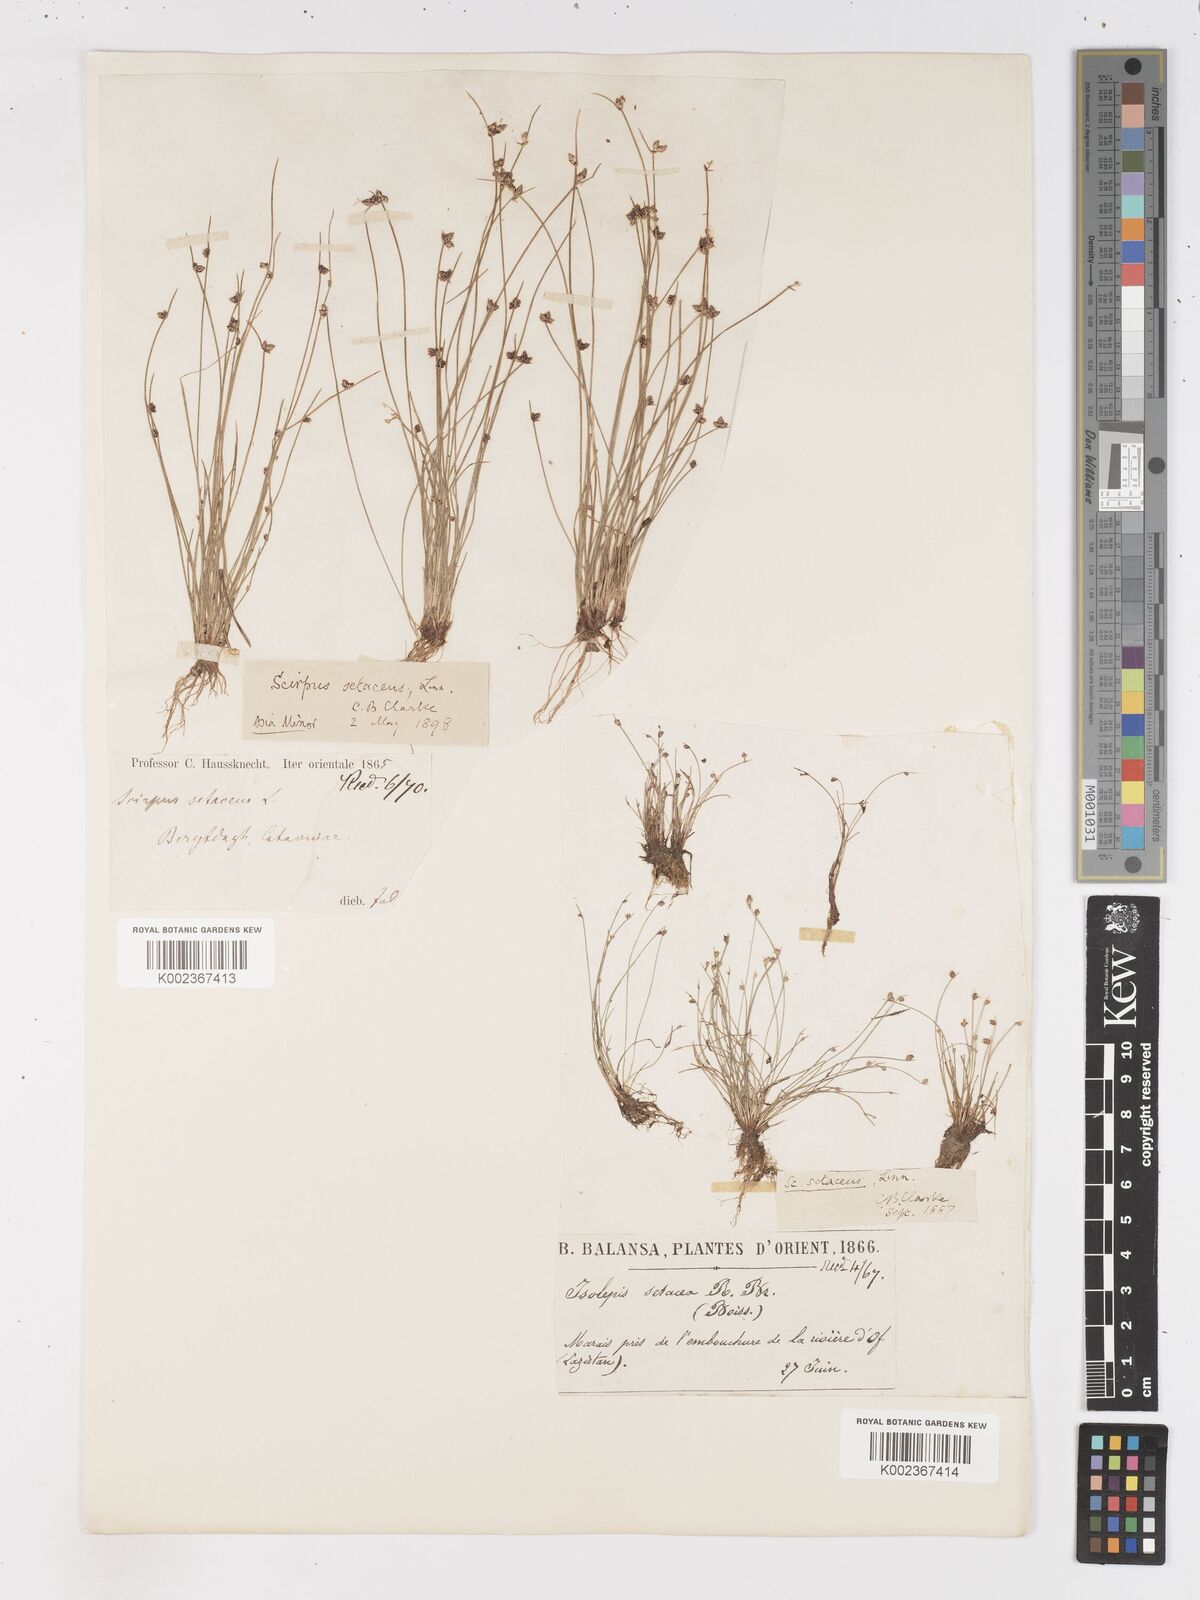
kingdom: Plantae
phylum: Tracheophyta
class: Liliopsida
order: Poales
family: Cyperaceae
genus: Isolepis
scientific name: Isolepis setacea
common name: Bristle club-rush
